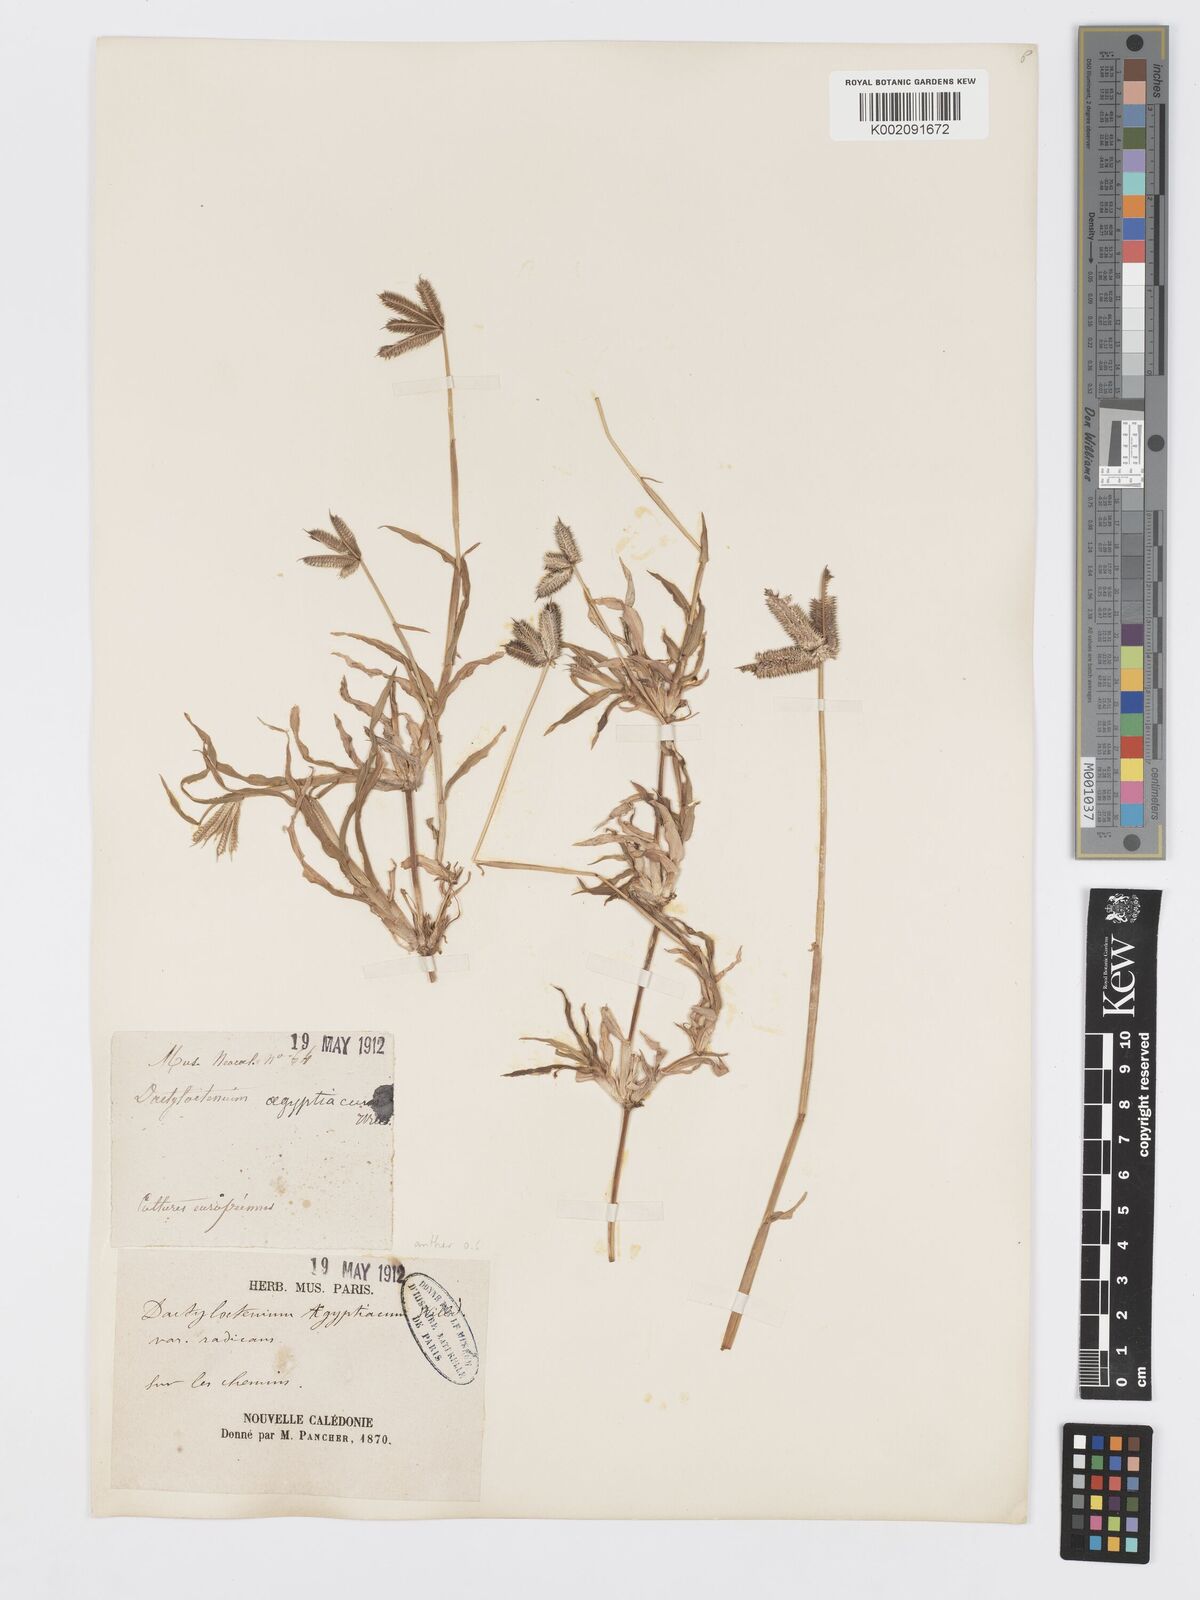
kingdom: Plantae
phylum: Tracheophyta
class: Liliopsida
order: Poales
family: Poaceae
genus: Dactyloctenium
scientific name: Dactyloctenium aegyptium
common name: Egyptian grass
